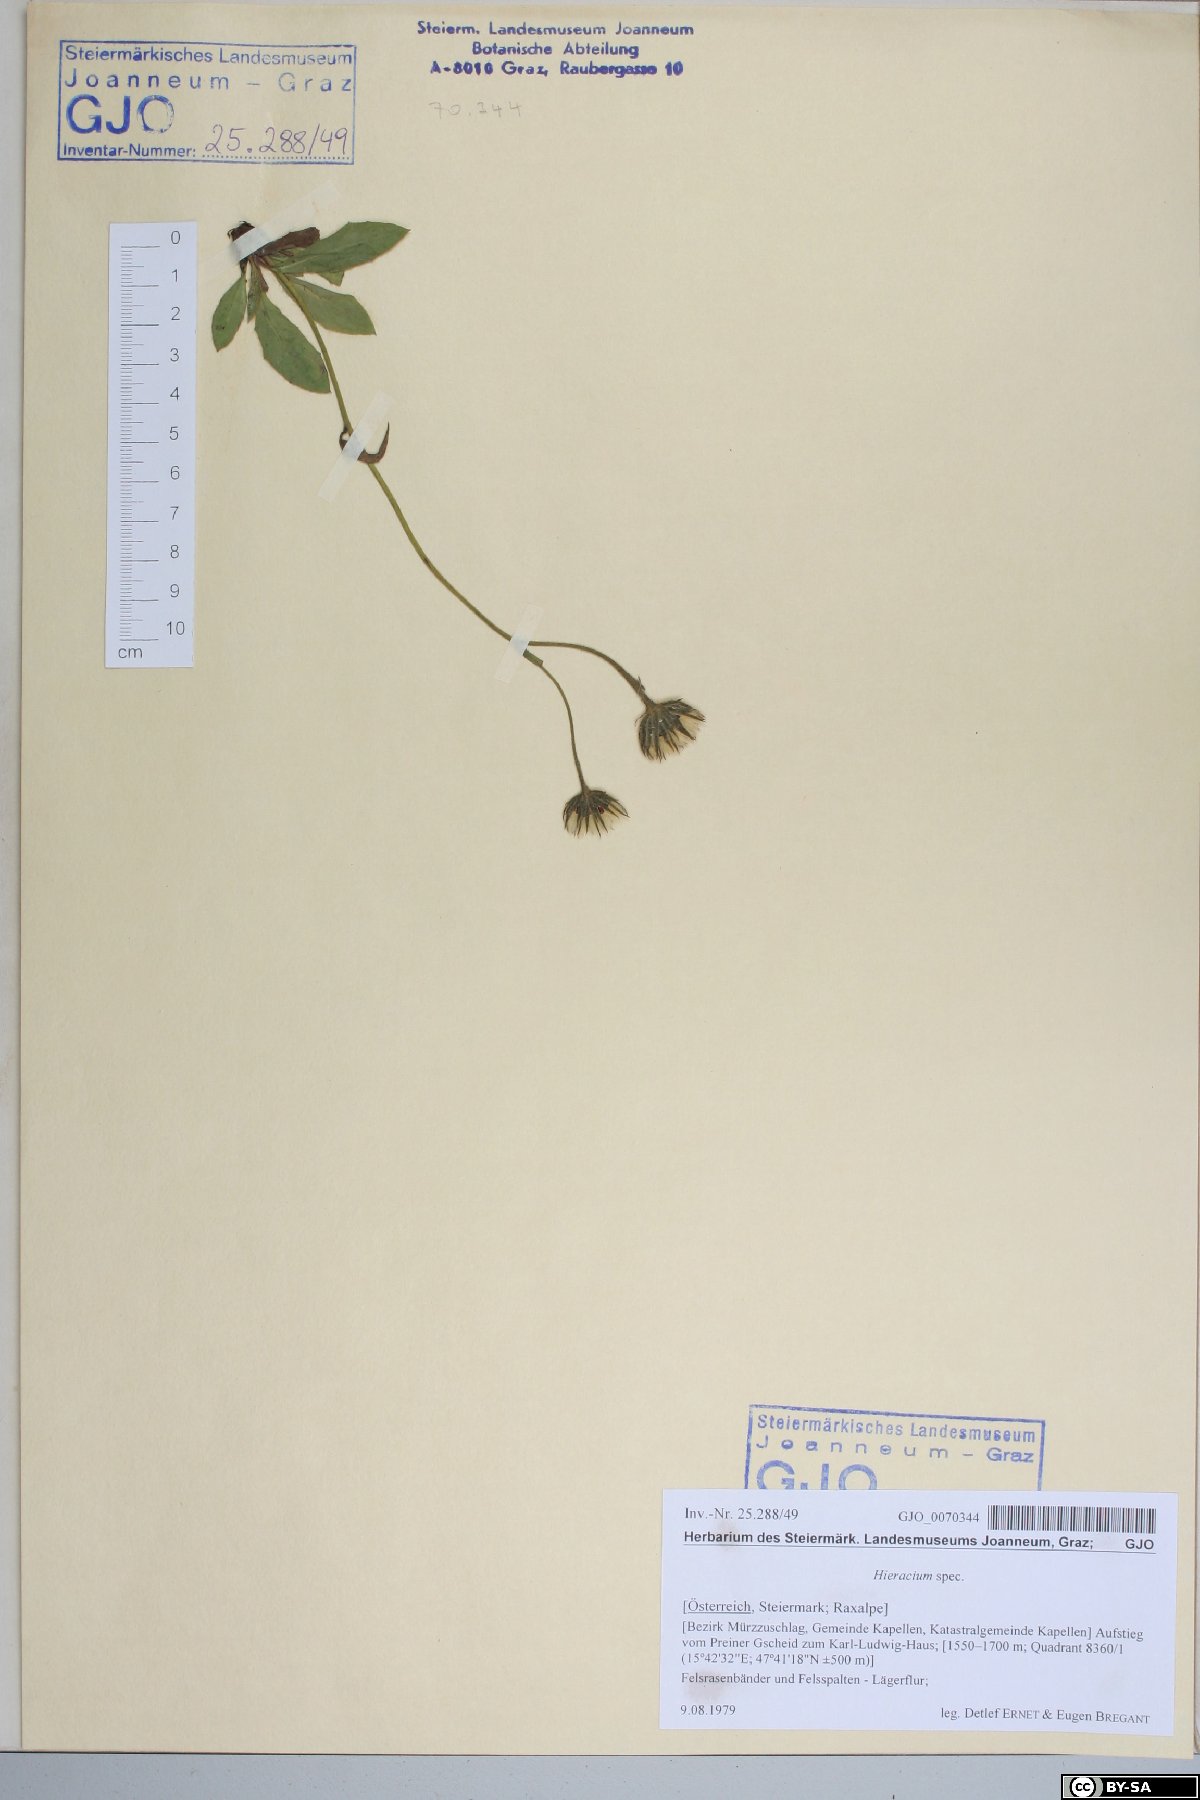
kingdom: Plantae
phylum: Tracheophyta
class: Magnoliopsida
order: Asterales
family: Asteraceae
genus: Hieracium
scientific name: Hieracium
